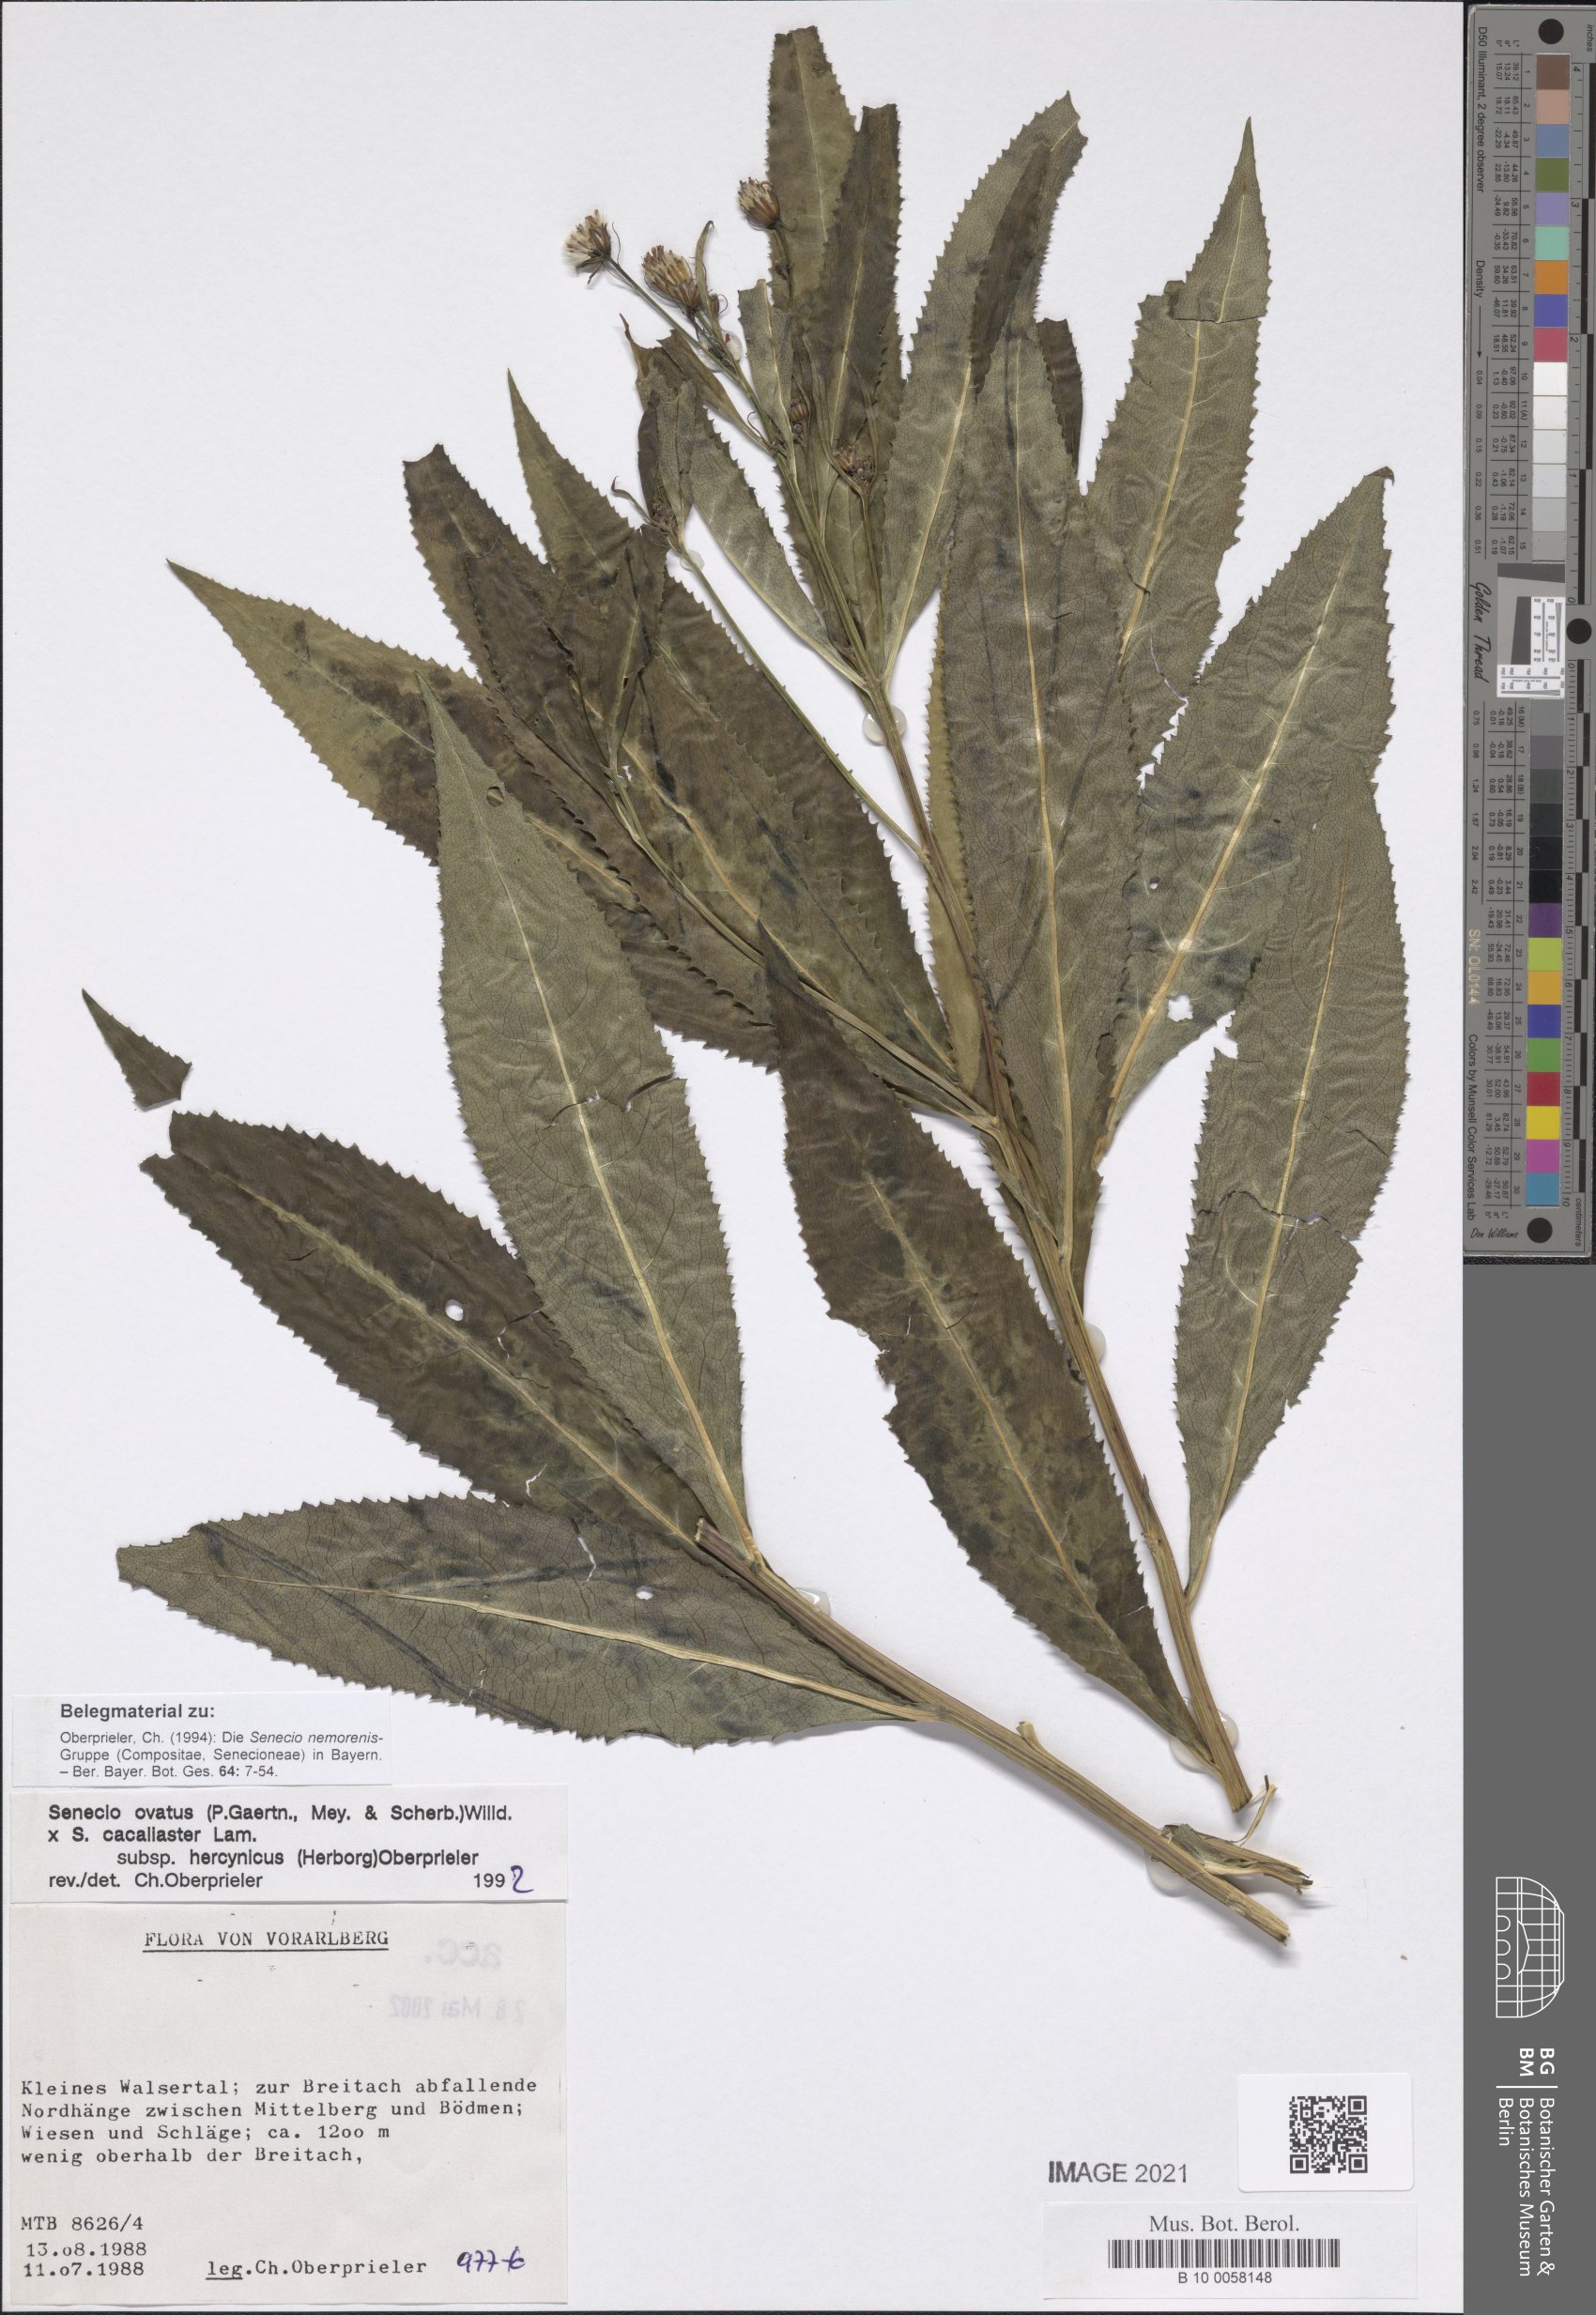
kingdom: Plantae
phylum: Tracheophyta
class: Magnoliopsida
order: Asterales
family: Asteraceae
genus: Senecio
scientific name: Senecio ovatus
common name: Wood ragwort
